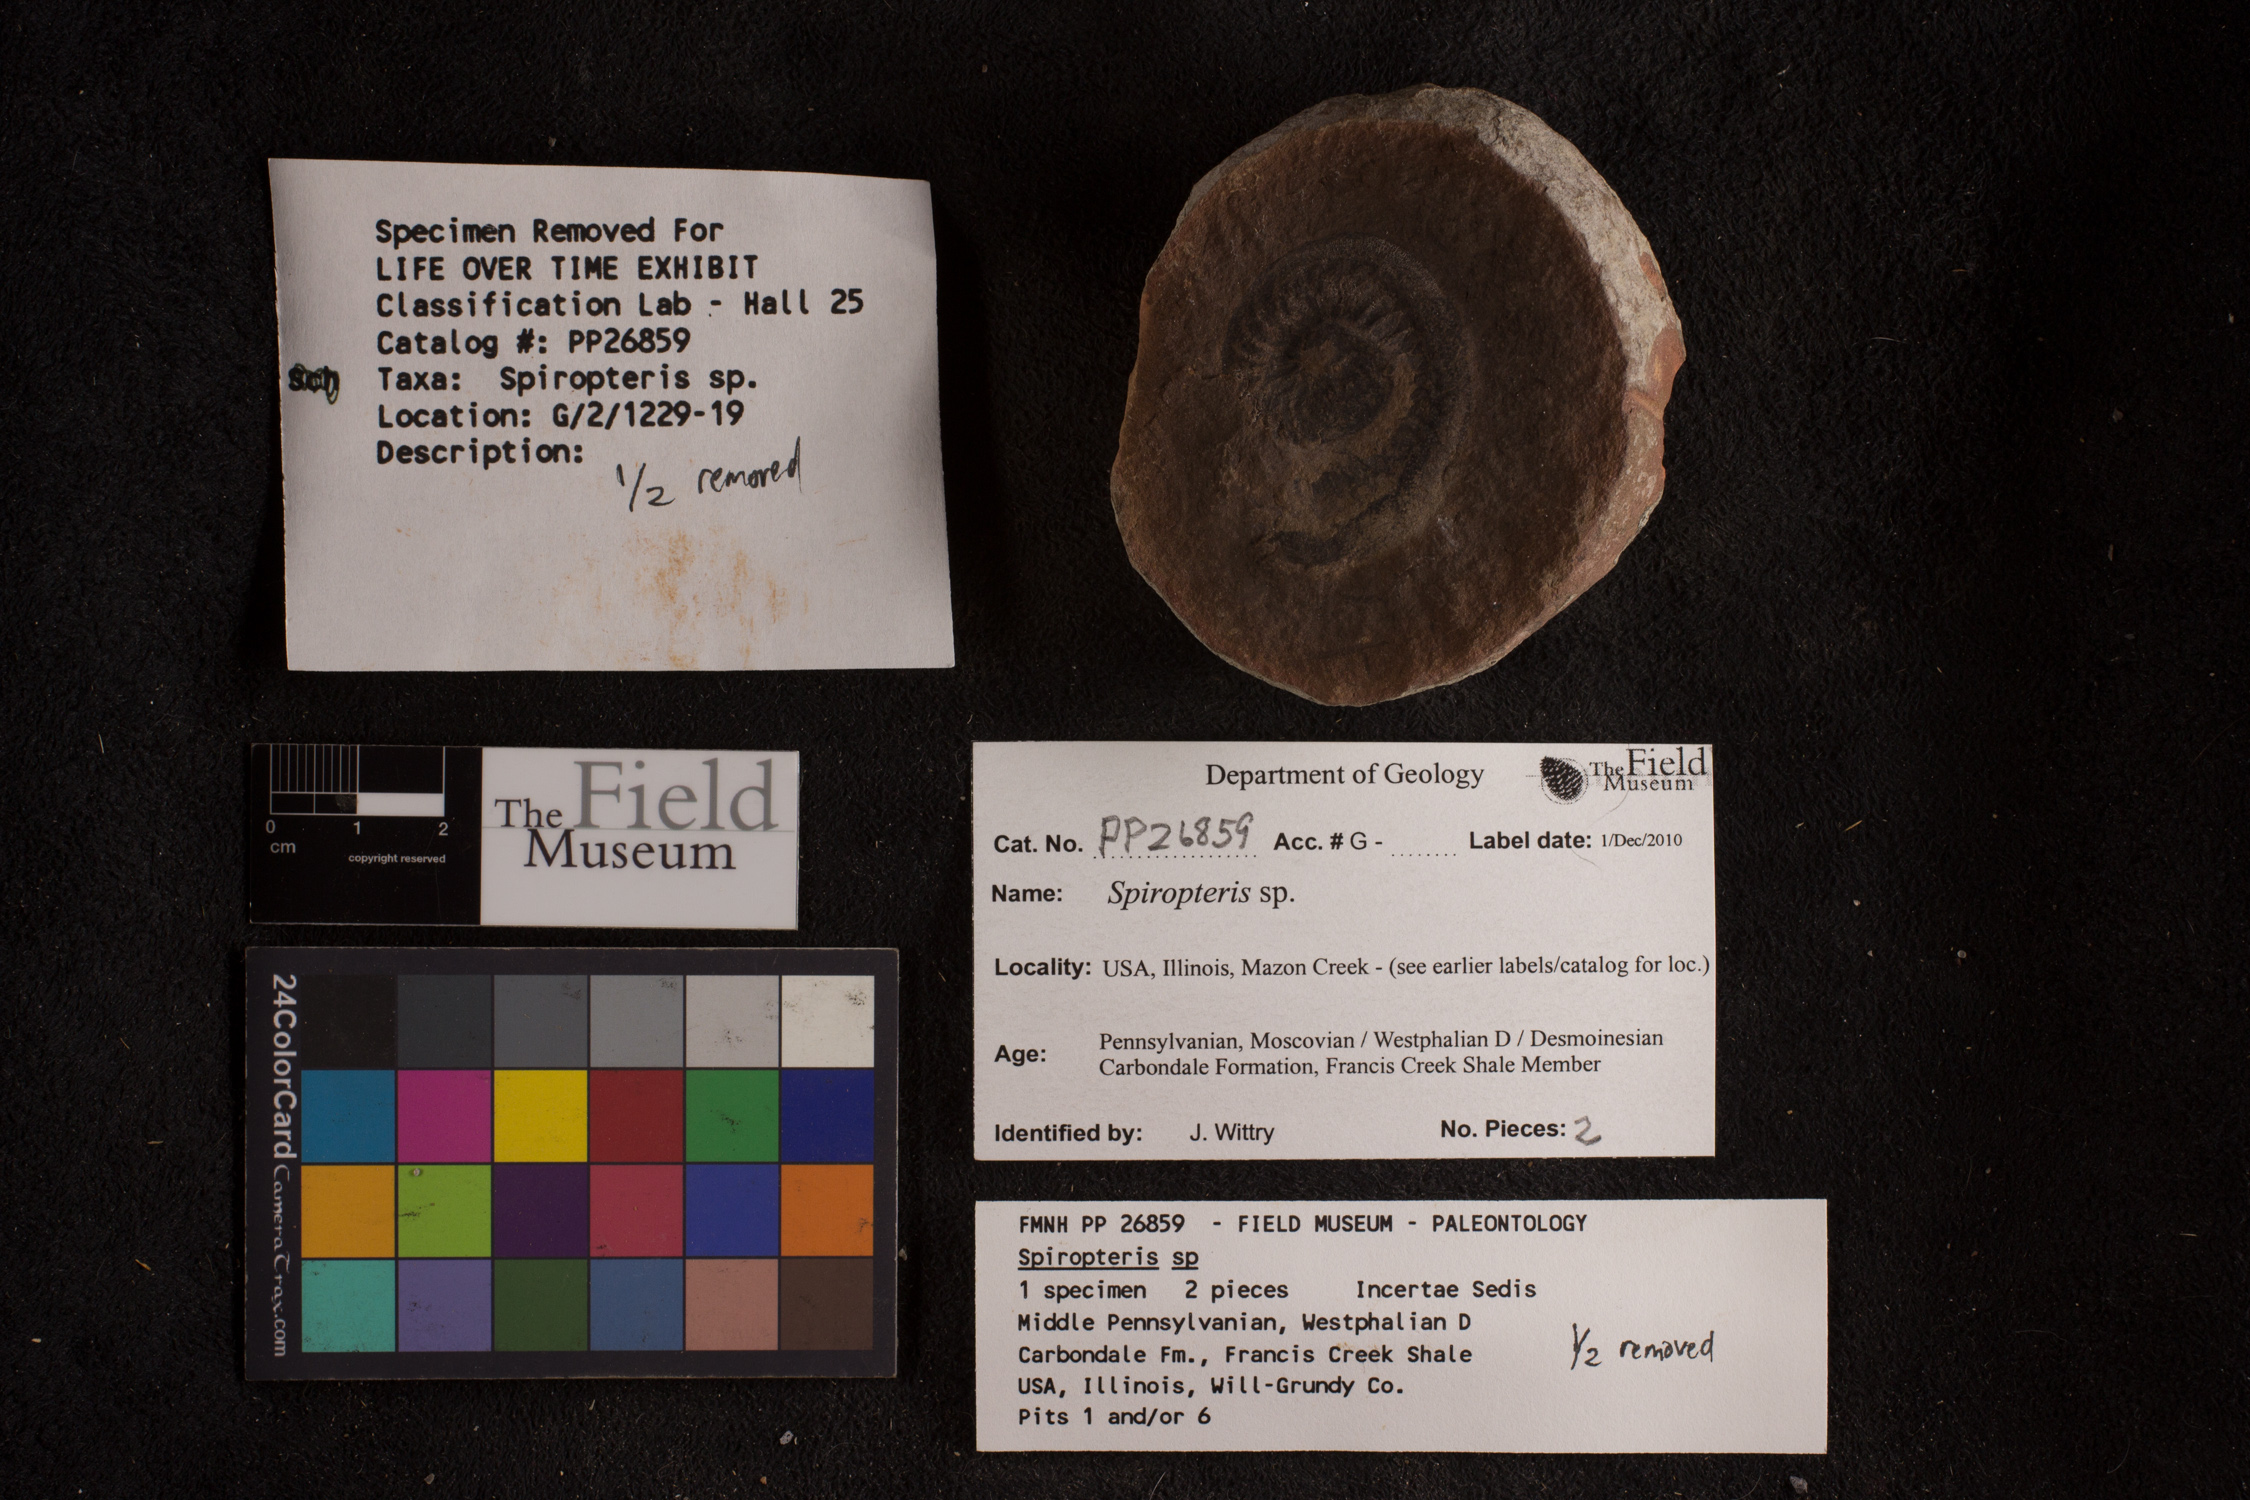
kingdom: Plantae
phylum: Tracheophyta
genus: Spiropteris
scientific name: Spiropteris
